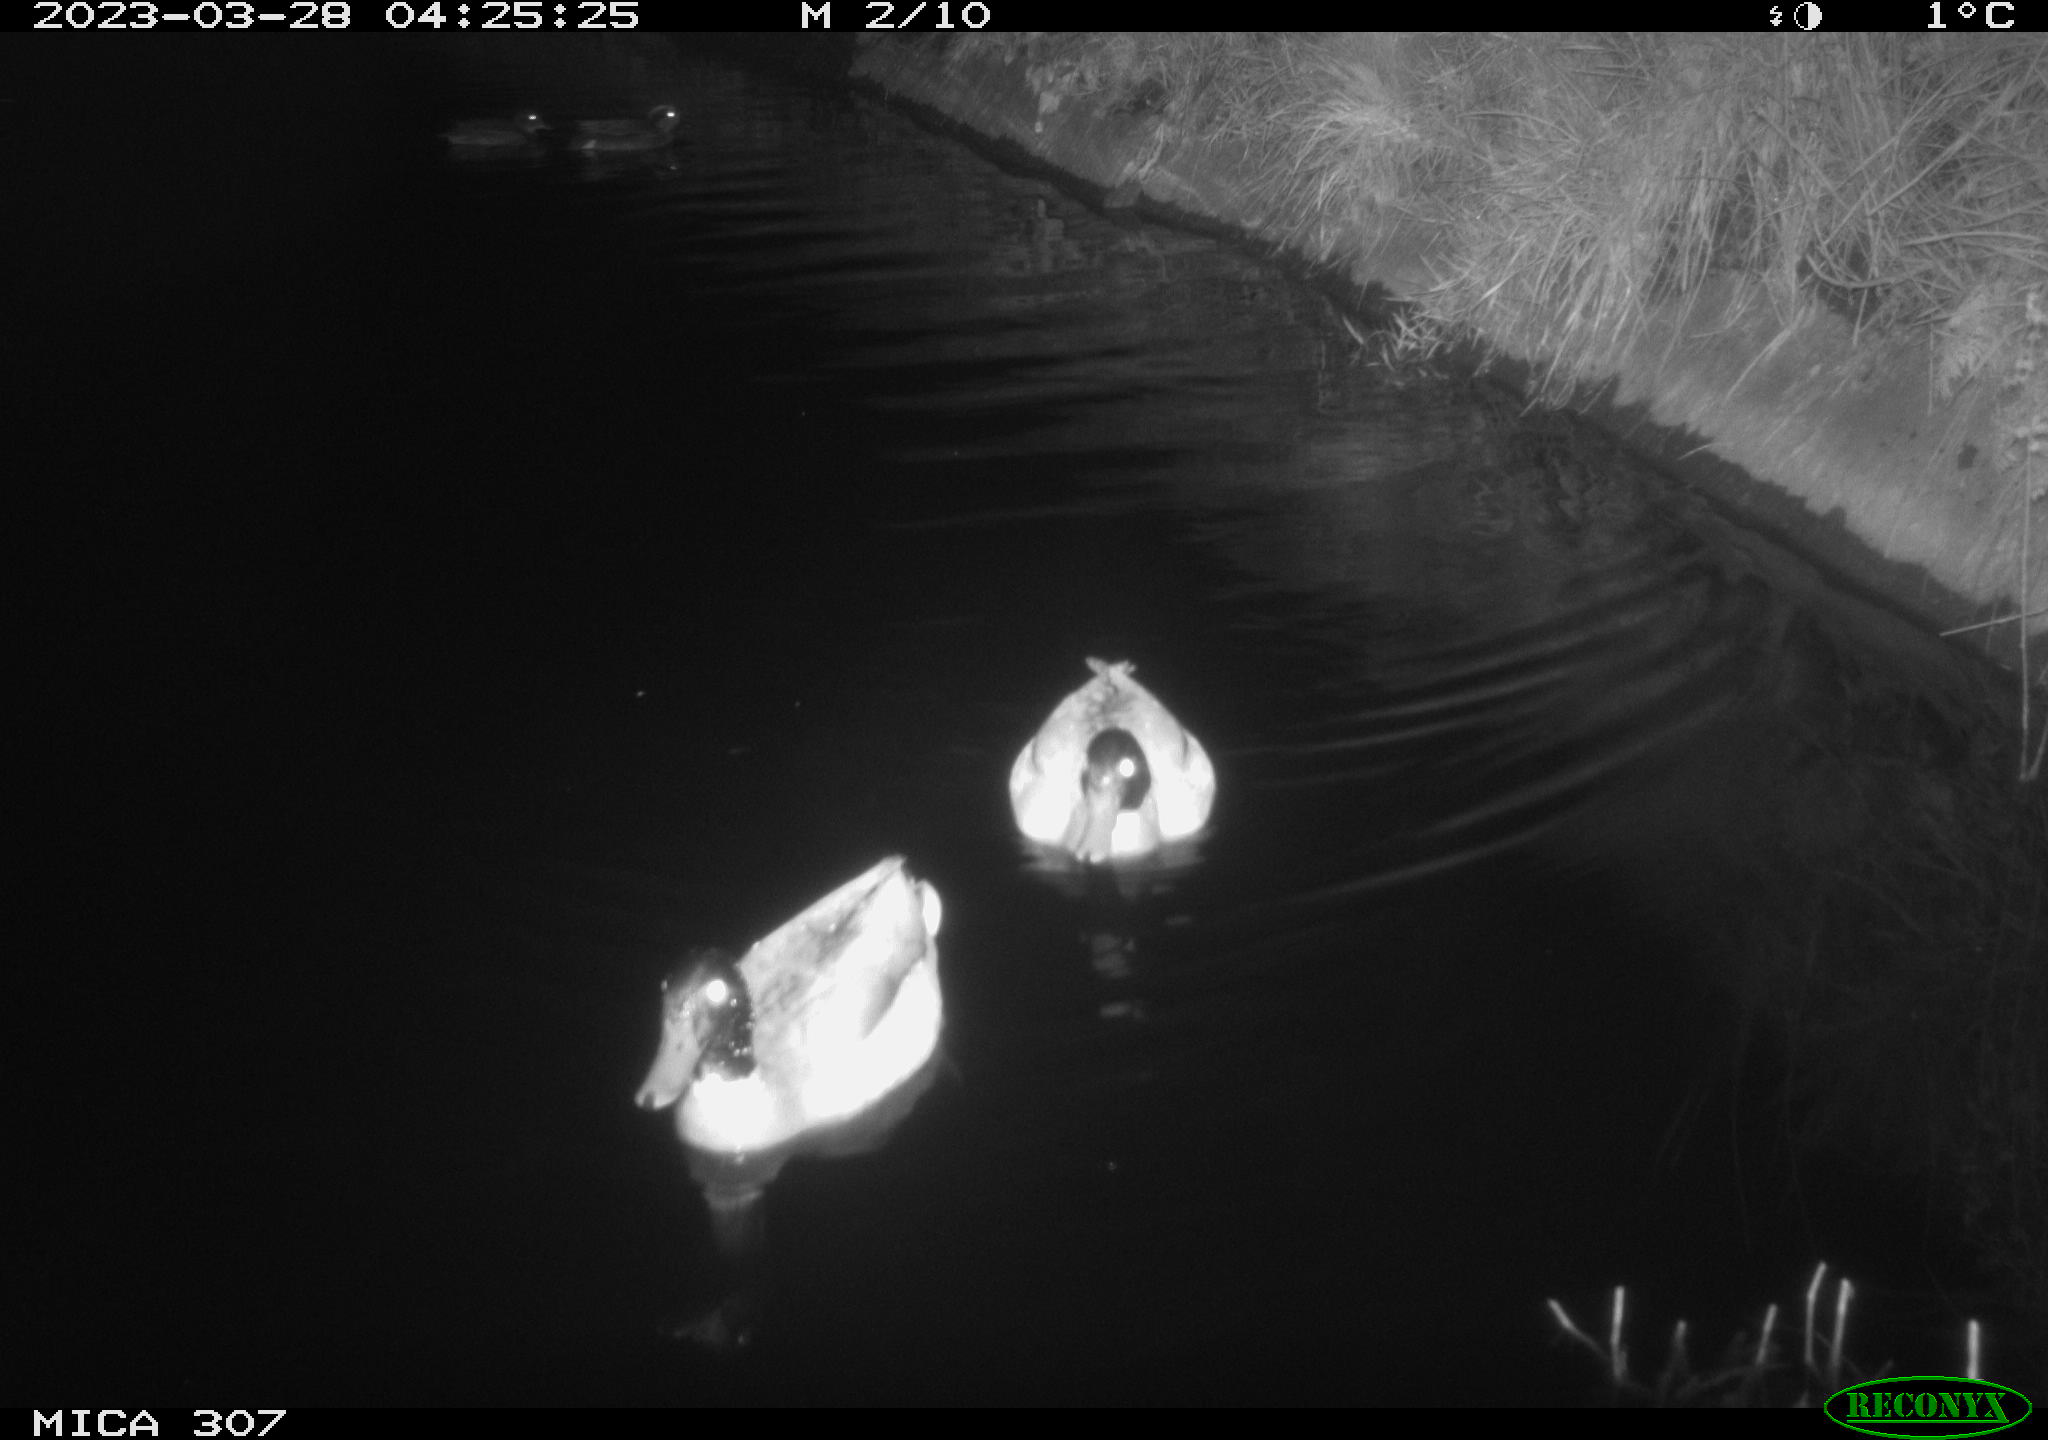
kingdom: Animalia
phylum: Chordata
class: Aves
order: Anseriformes
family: Anatidae
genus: Anas
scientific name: Anas
